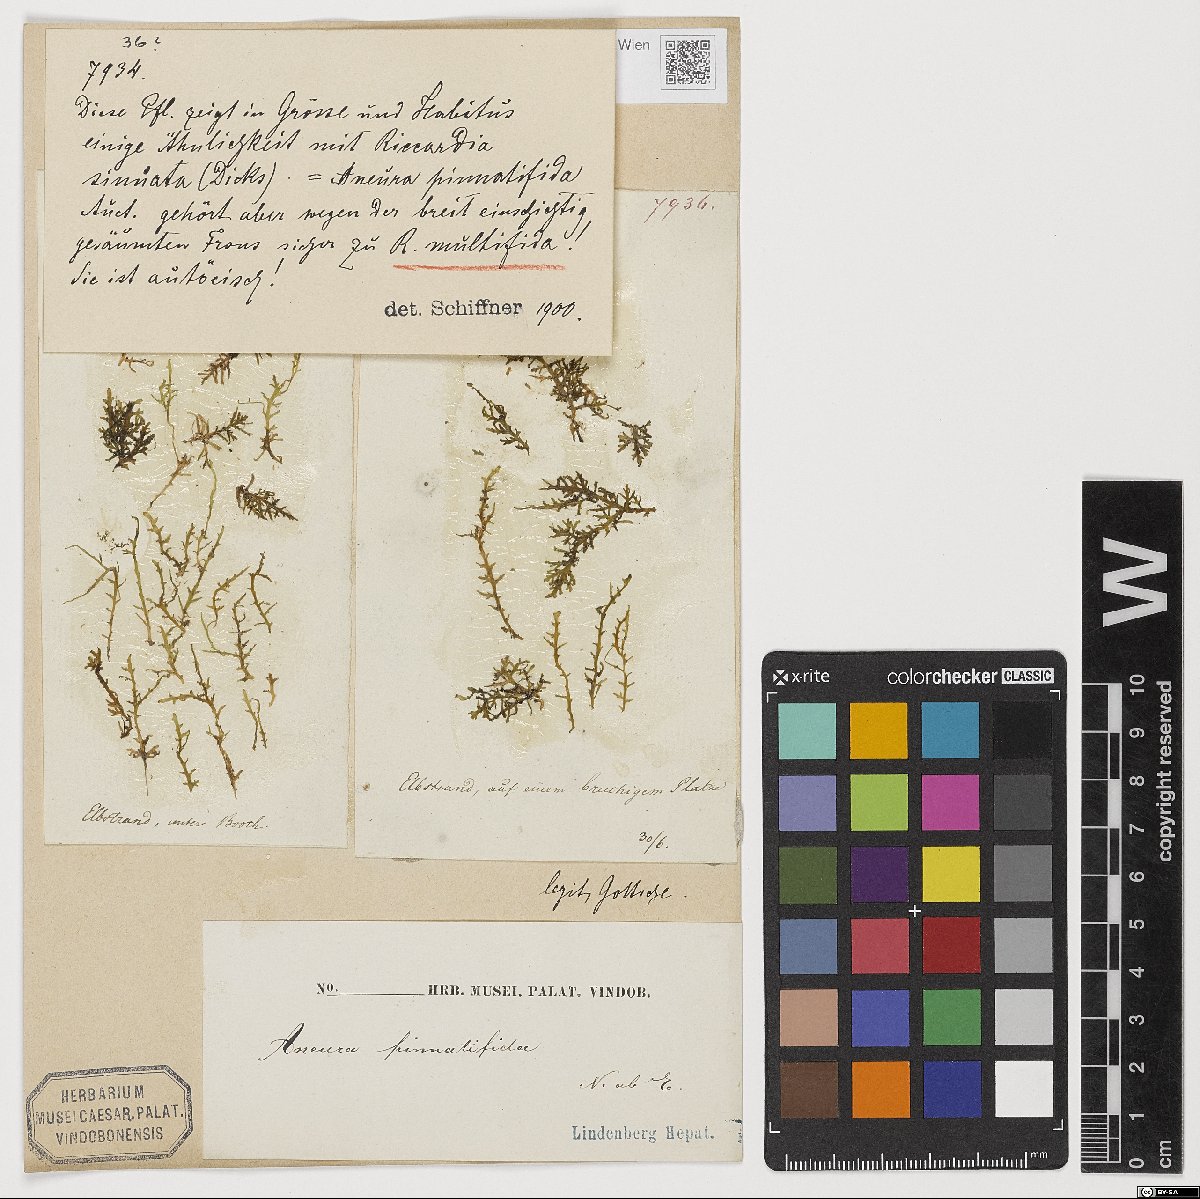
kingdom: Plantae
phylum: Marchantiophyta
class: Jungermanniopsida
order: Metzgeriales
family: Aneuraceae
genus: Riccardia
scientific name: Riccardia multifida
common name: Delicate germanderwort
